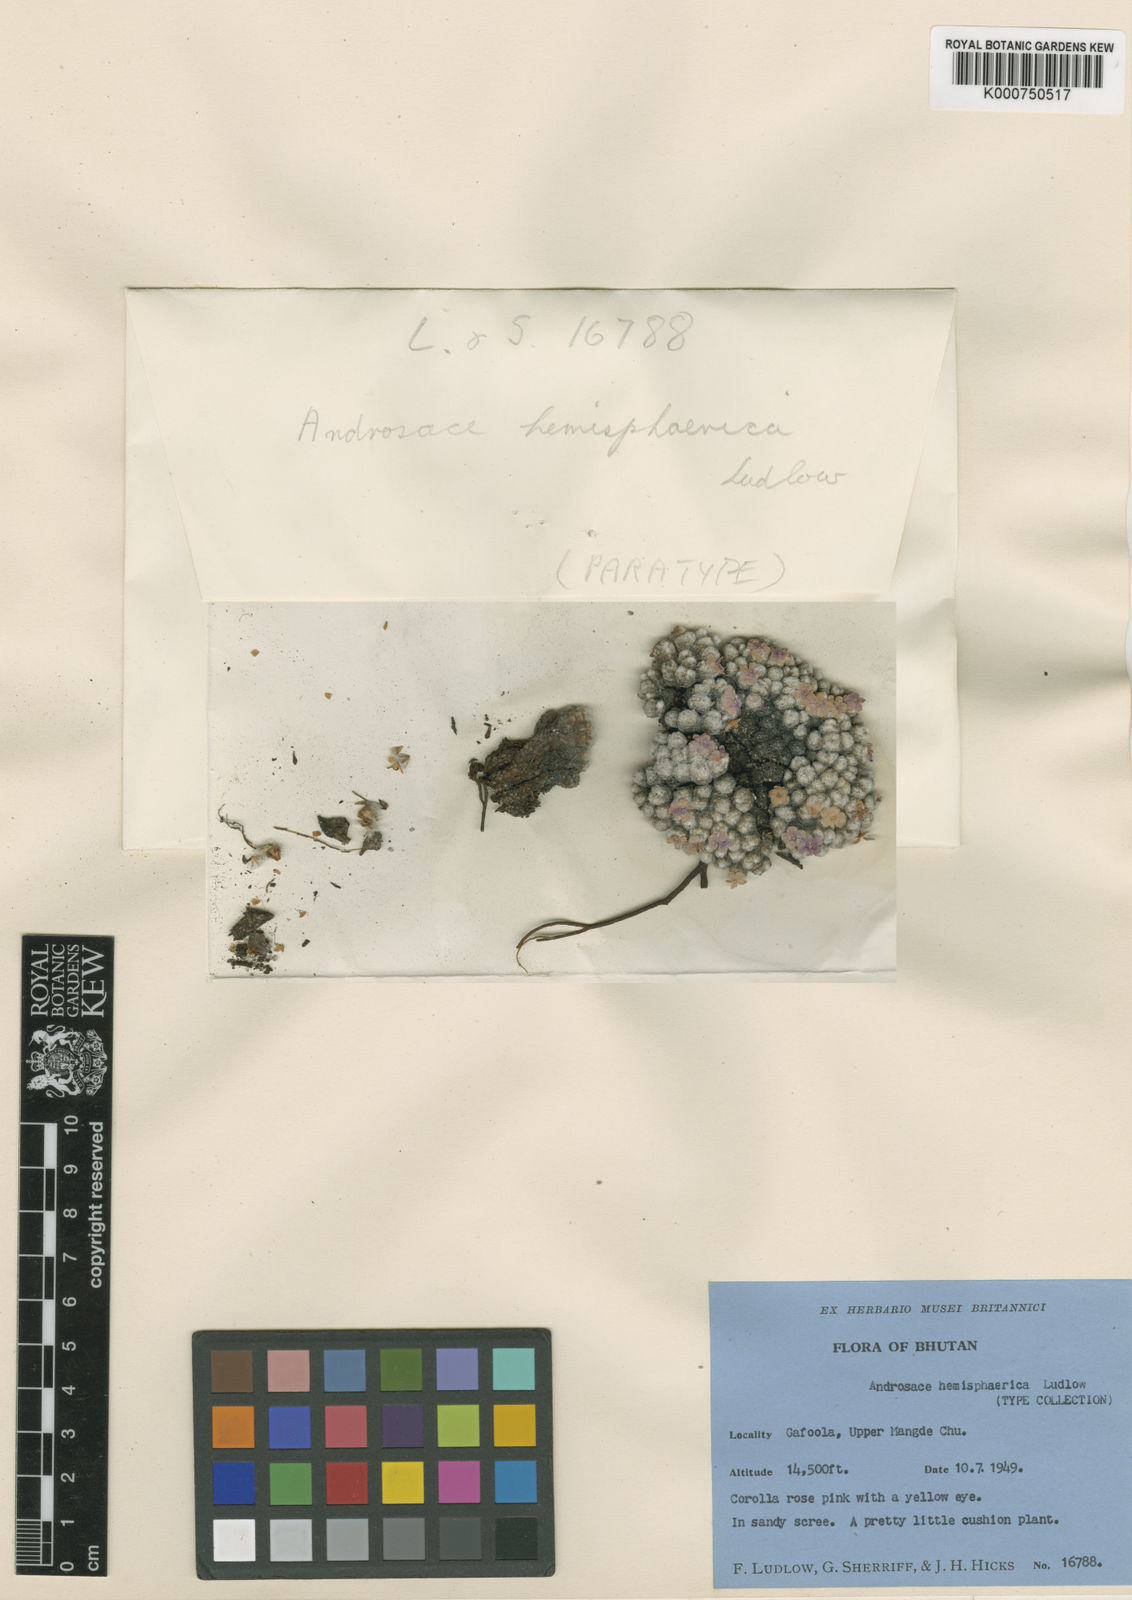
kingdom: Plantae
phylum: Tracheophyta
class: Magnoliopsida
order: Ericales
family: Primulaceae
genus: Androsace
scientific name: Androsace hemisphaerica
